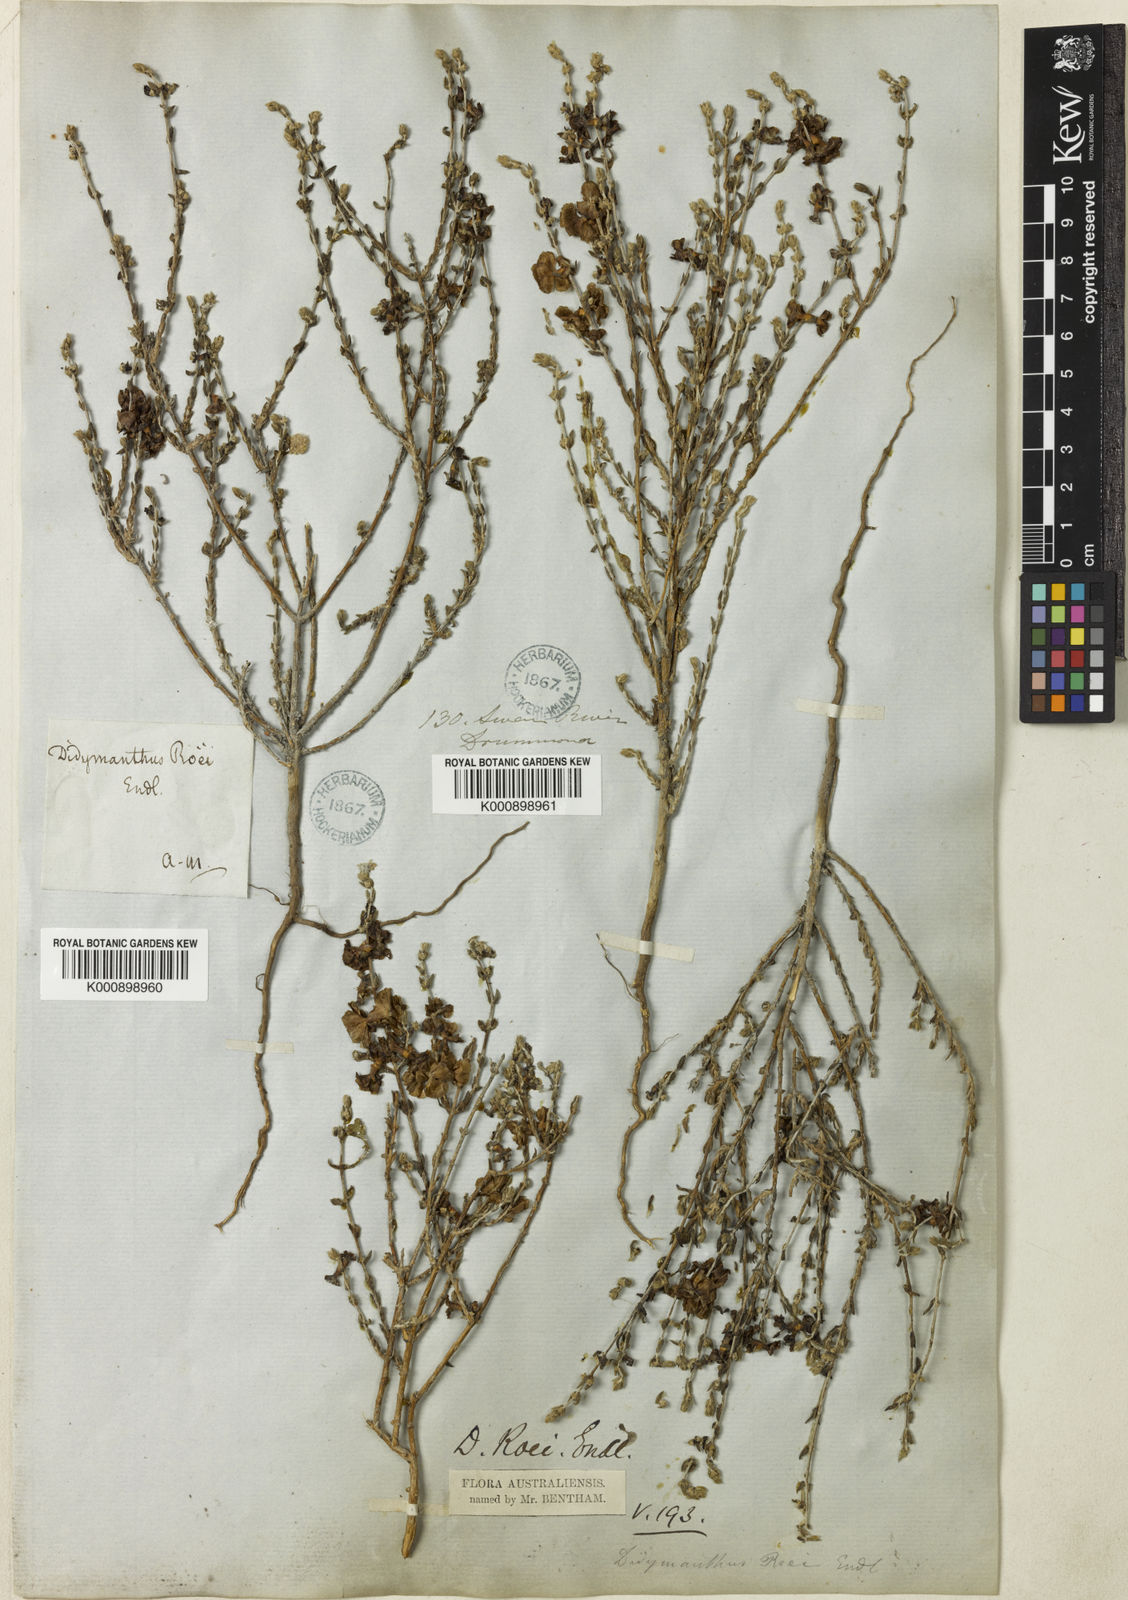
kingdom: Plantae
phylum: Tracheophyta
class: Magnoliopsida
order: Caryophyllales
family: Amaranthaceae
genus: Maireana
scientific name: Maireana
